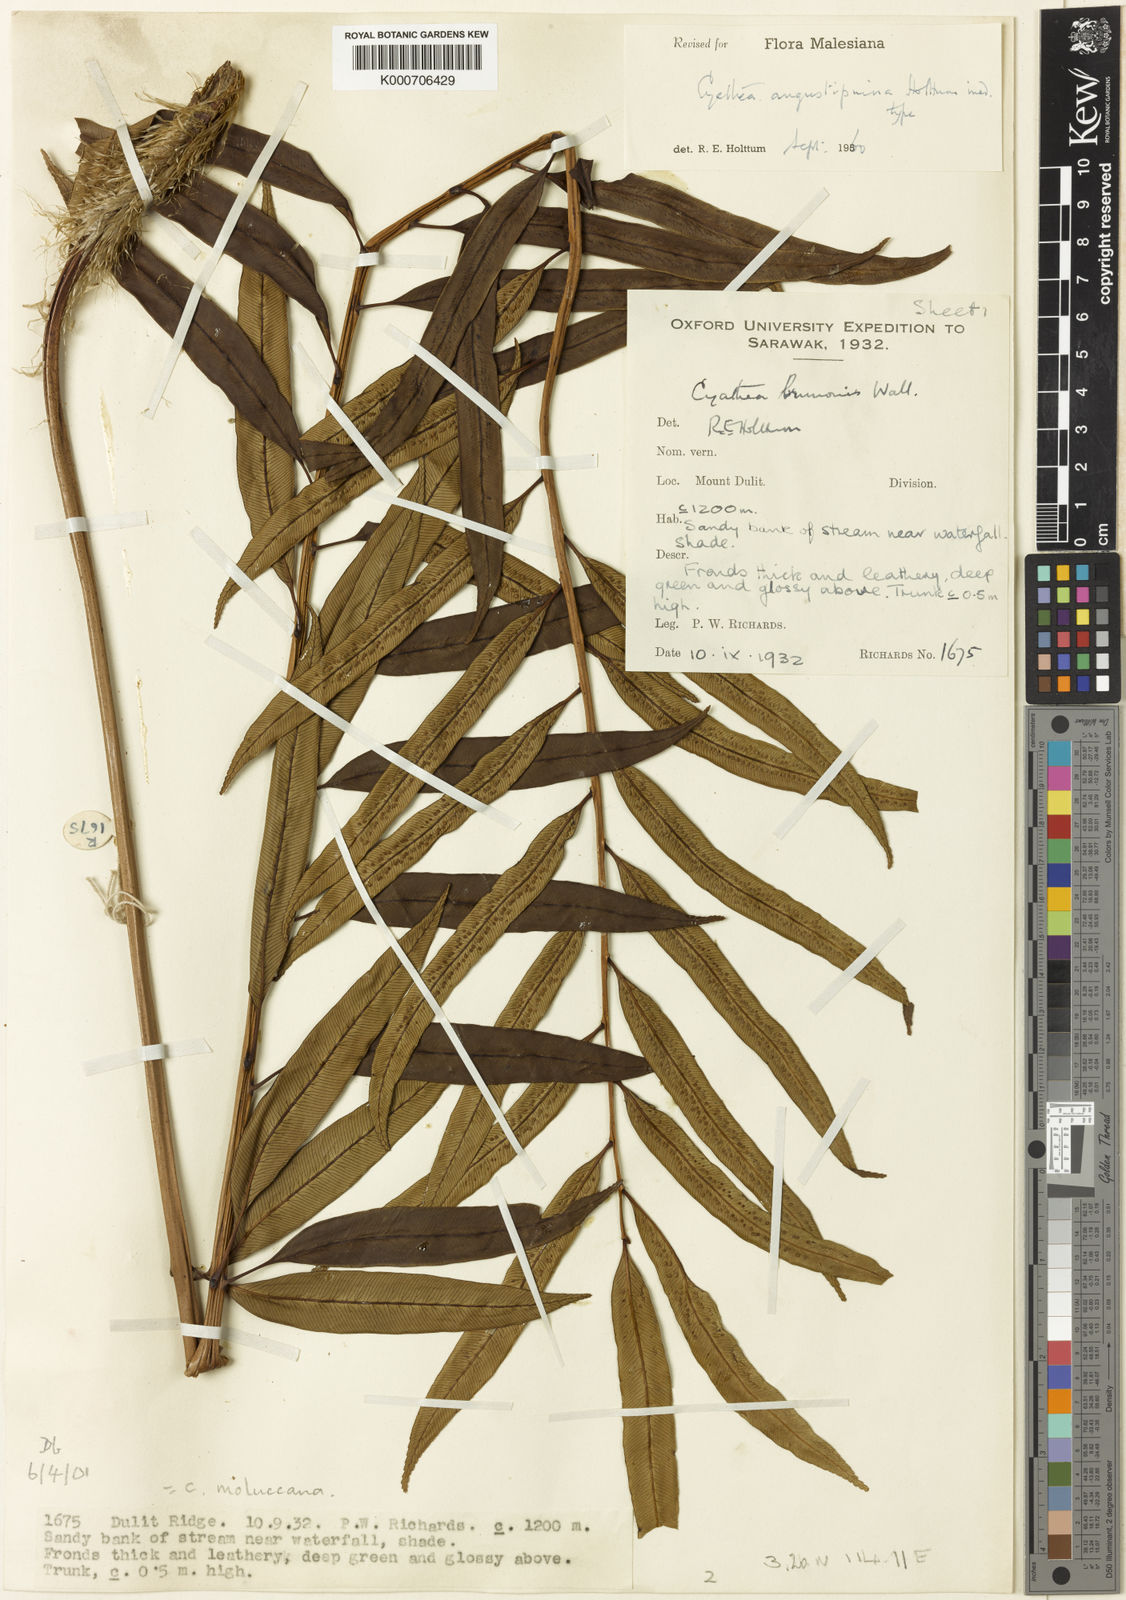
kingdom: Plantae
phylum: Tracheophyta
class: Polypodiopsida
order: Cyatheales
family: Cyatheaceae
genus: Sphaeropteris
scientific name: Sphaeropteris angustipinna
